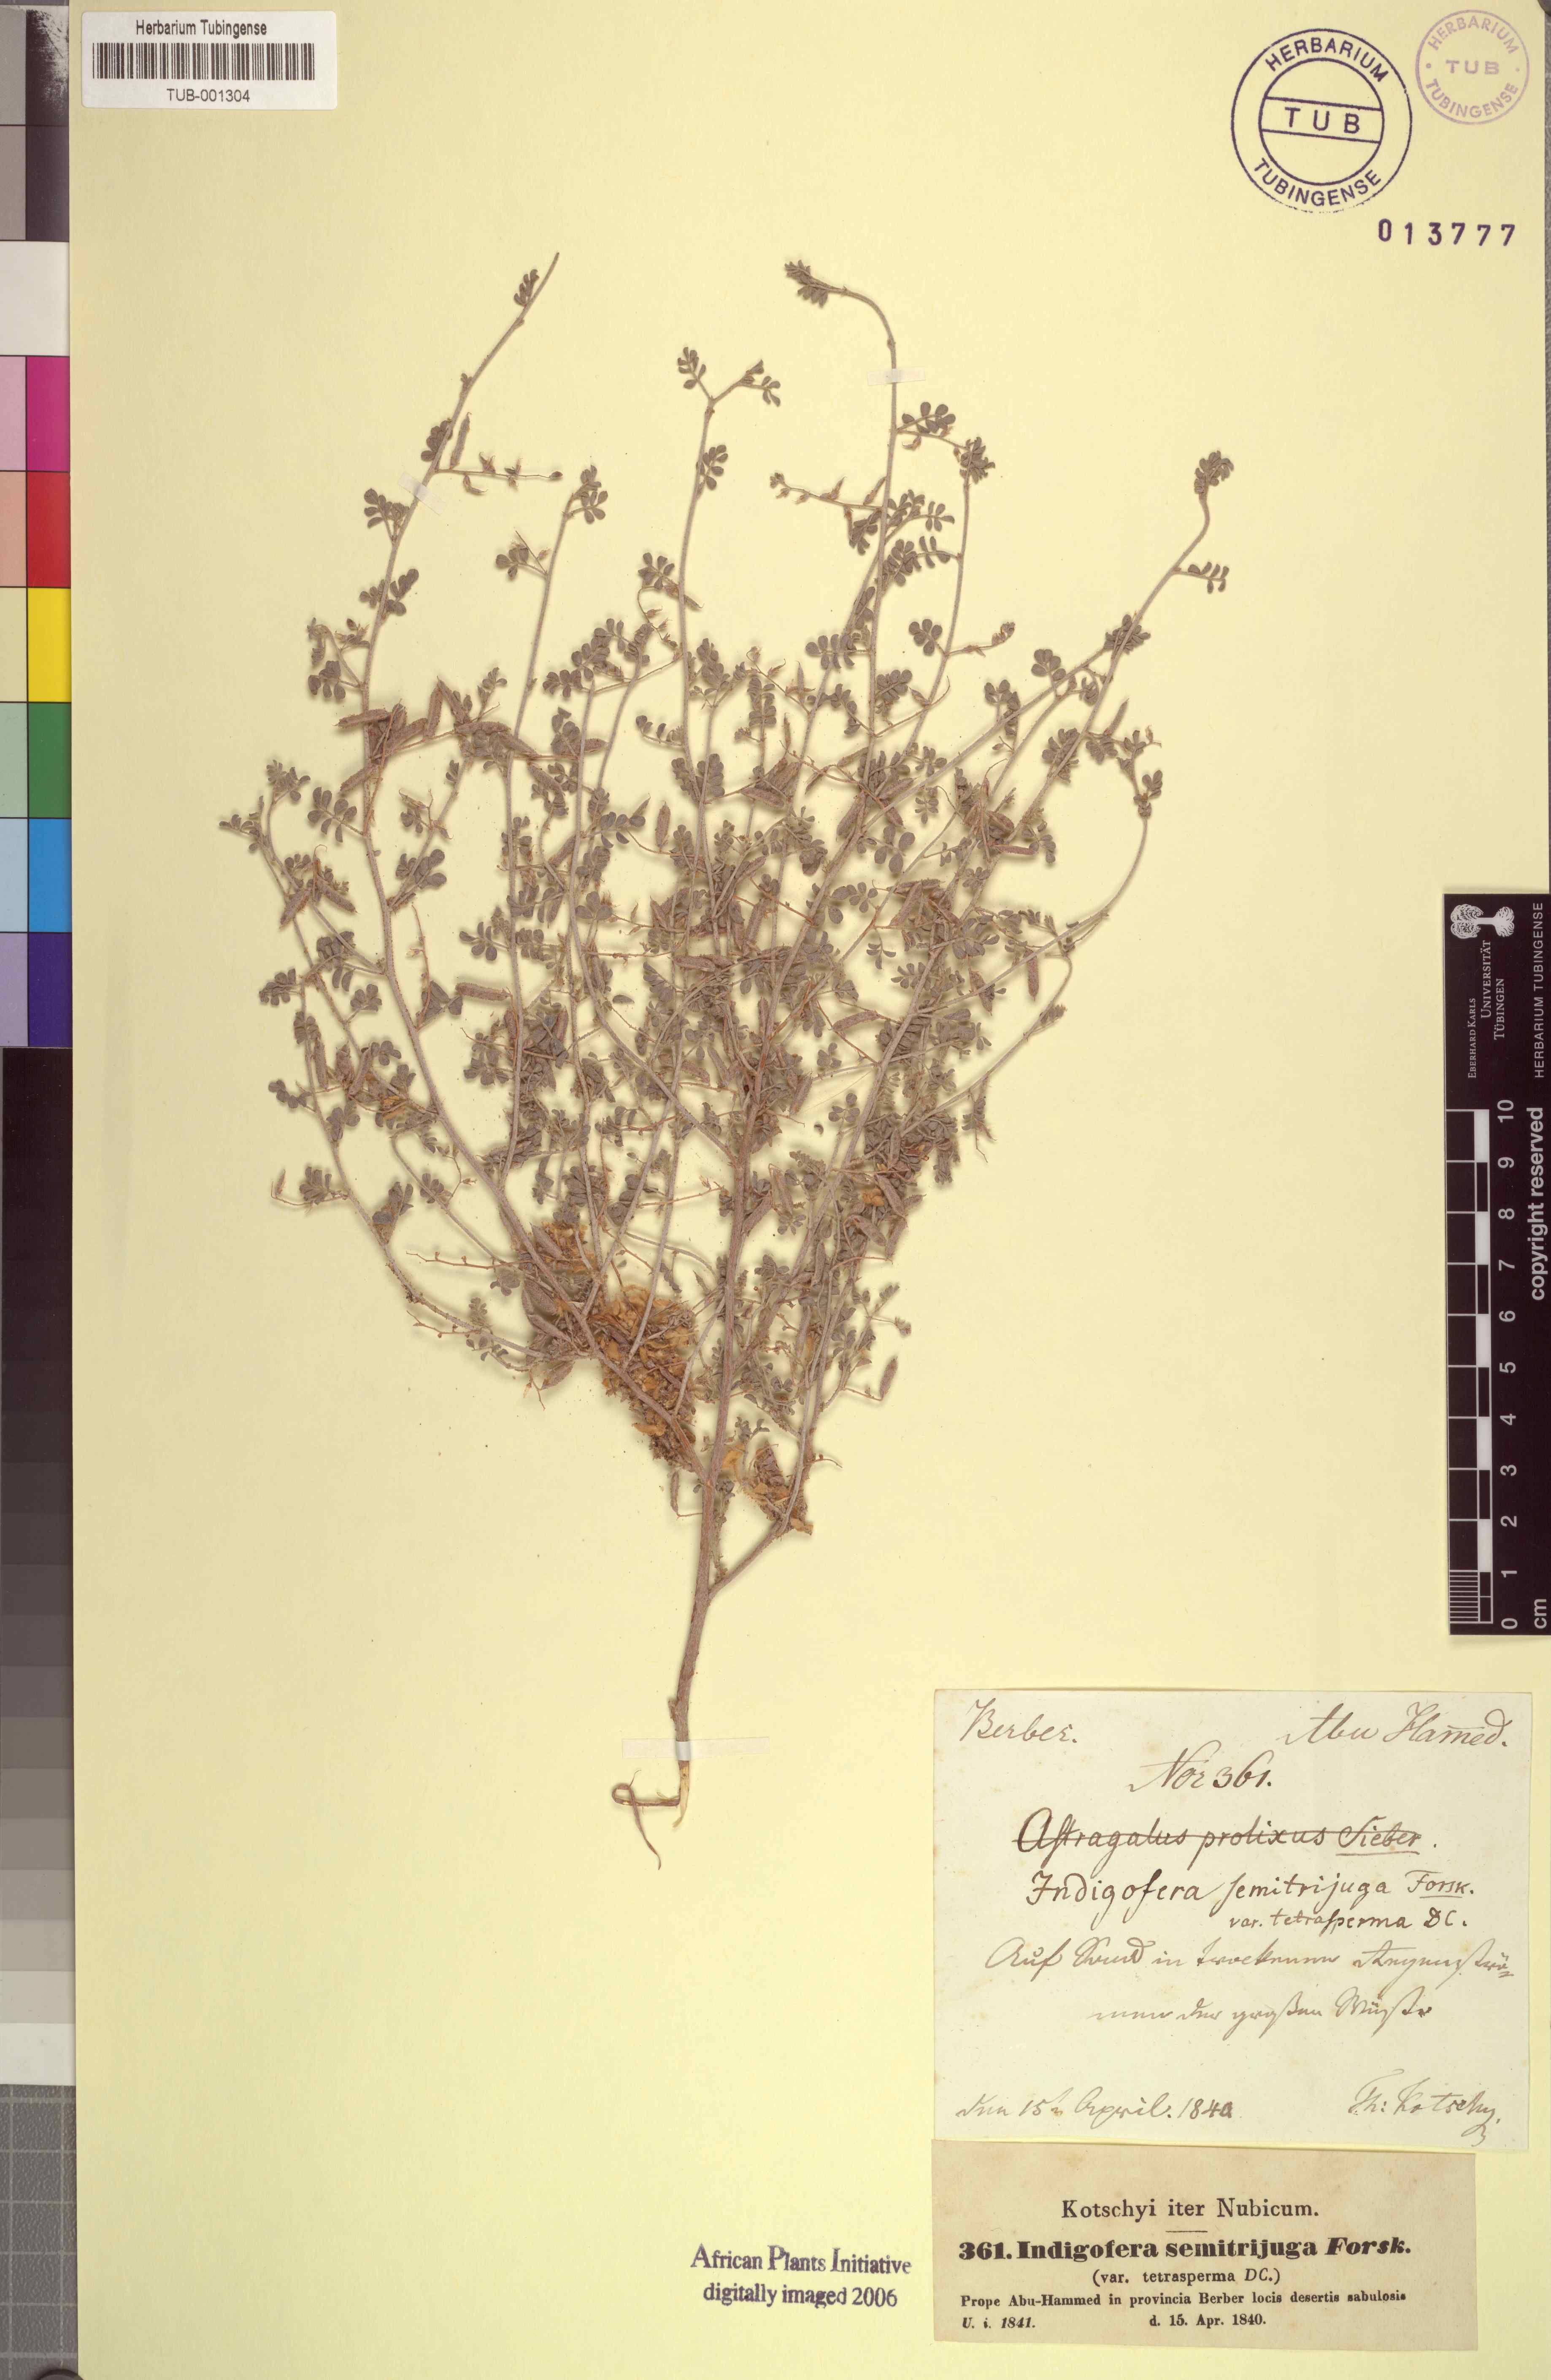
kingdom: Plantae
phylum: Tracheophyta
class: Magnoliopsida
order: Fabales
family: Fabaceae
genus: Indigofera
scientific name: Indigofera semitrijuga
